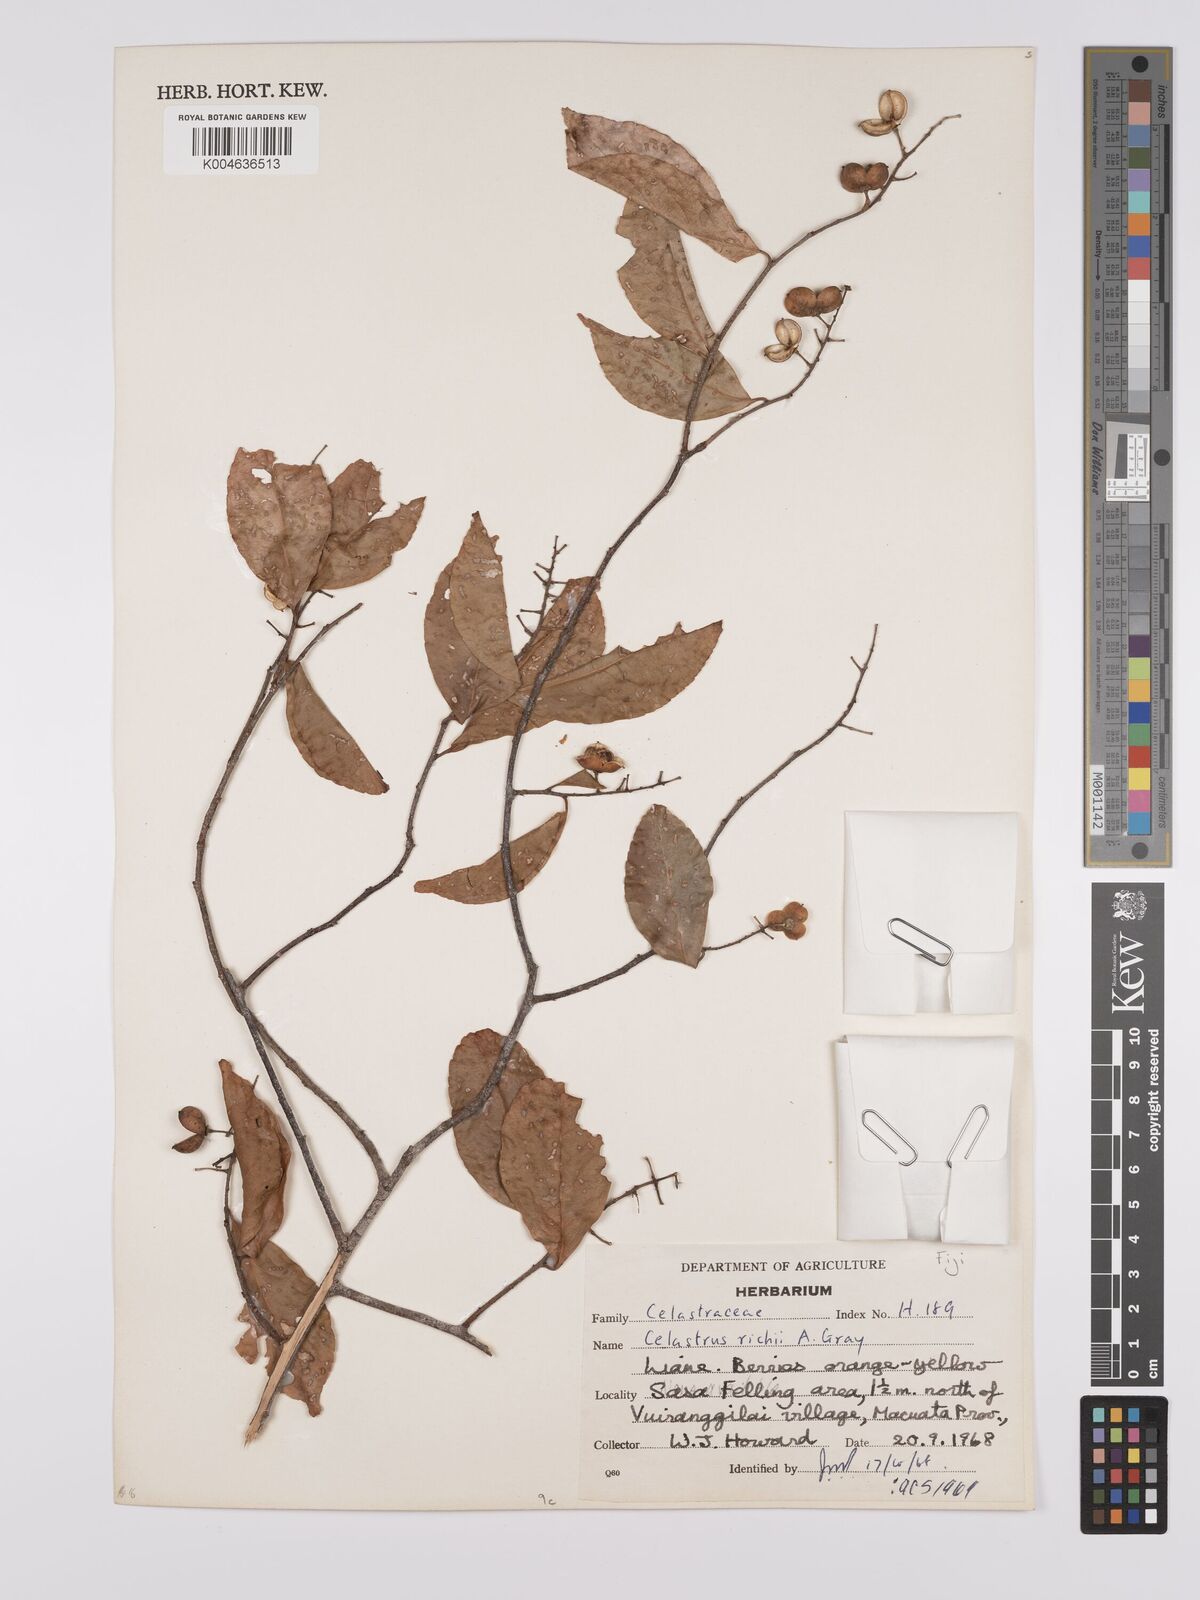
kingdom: Plantae
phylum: Tracheophyta
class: Magnoliopsida
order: Celastrales
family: Celastraceae
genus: Celastrus
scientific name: Celastrus richii
